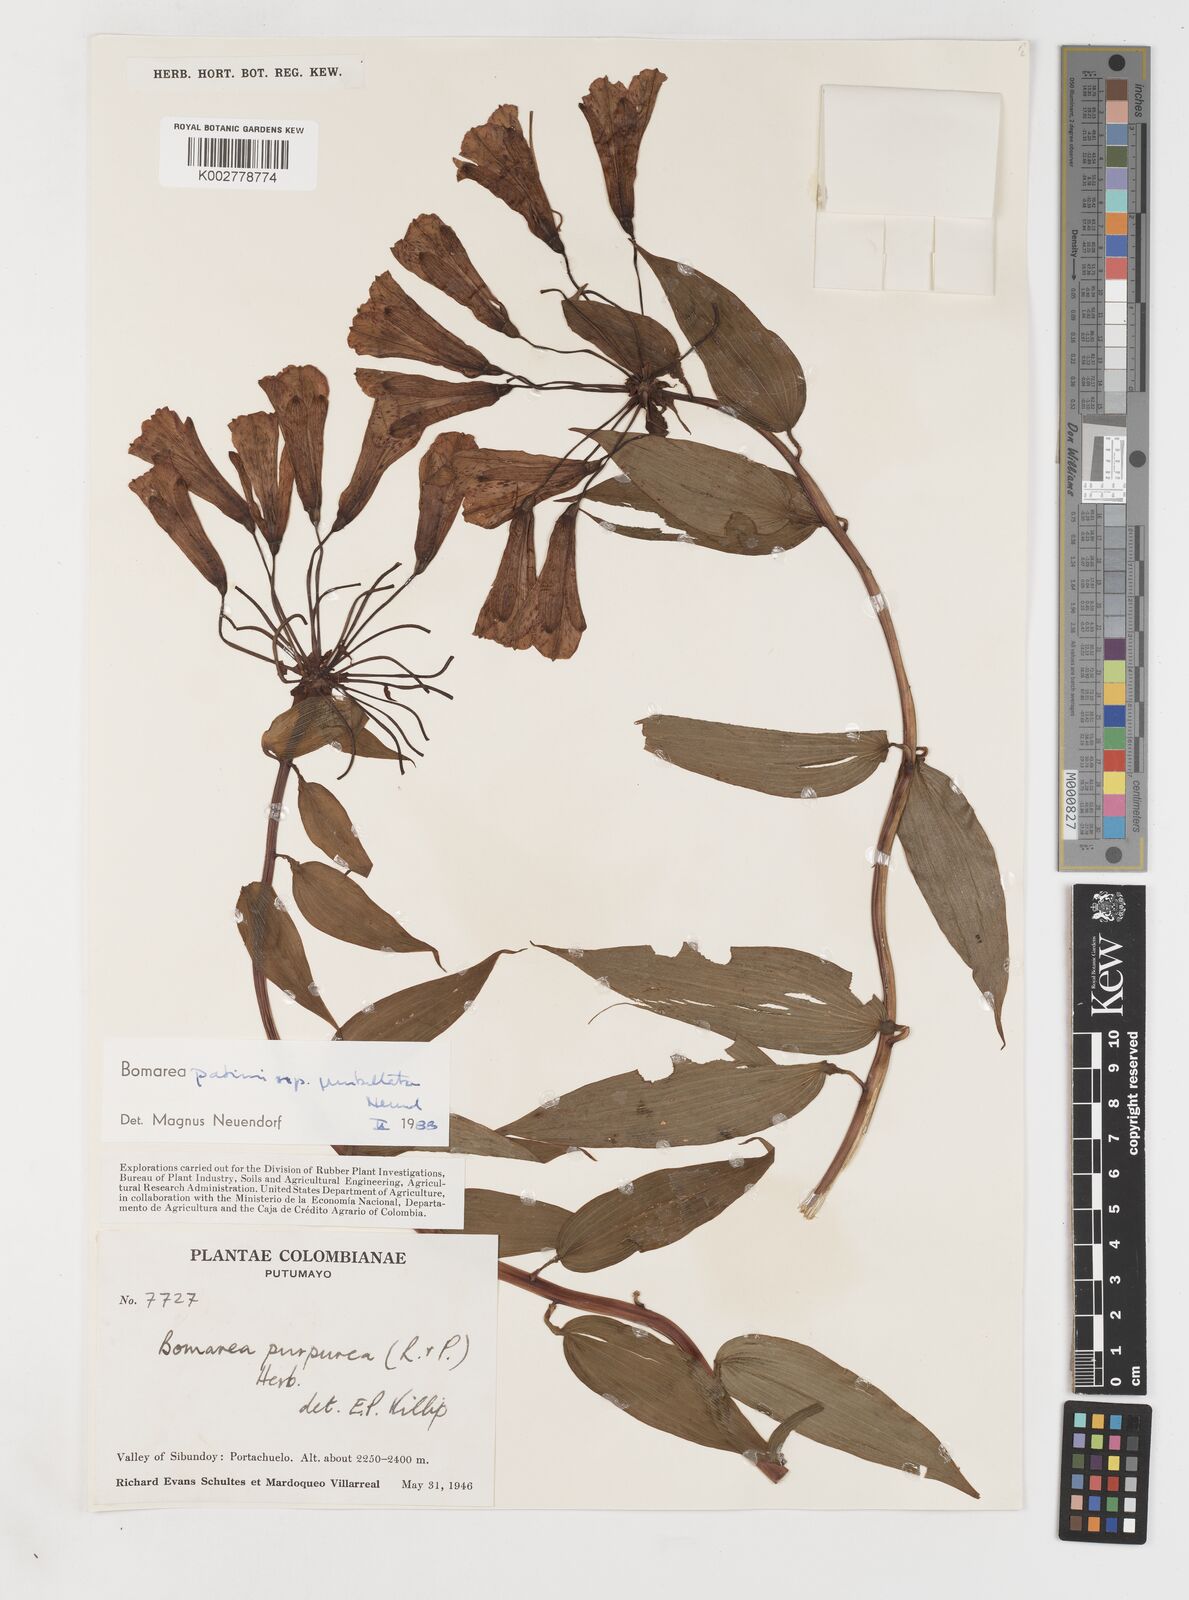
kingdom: Plantae
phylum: Tracheophyta
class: Liliopsida
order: Liliales
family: Alstroemeriaceae
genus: Bomarea
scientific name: Bomarea patinii
